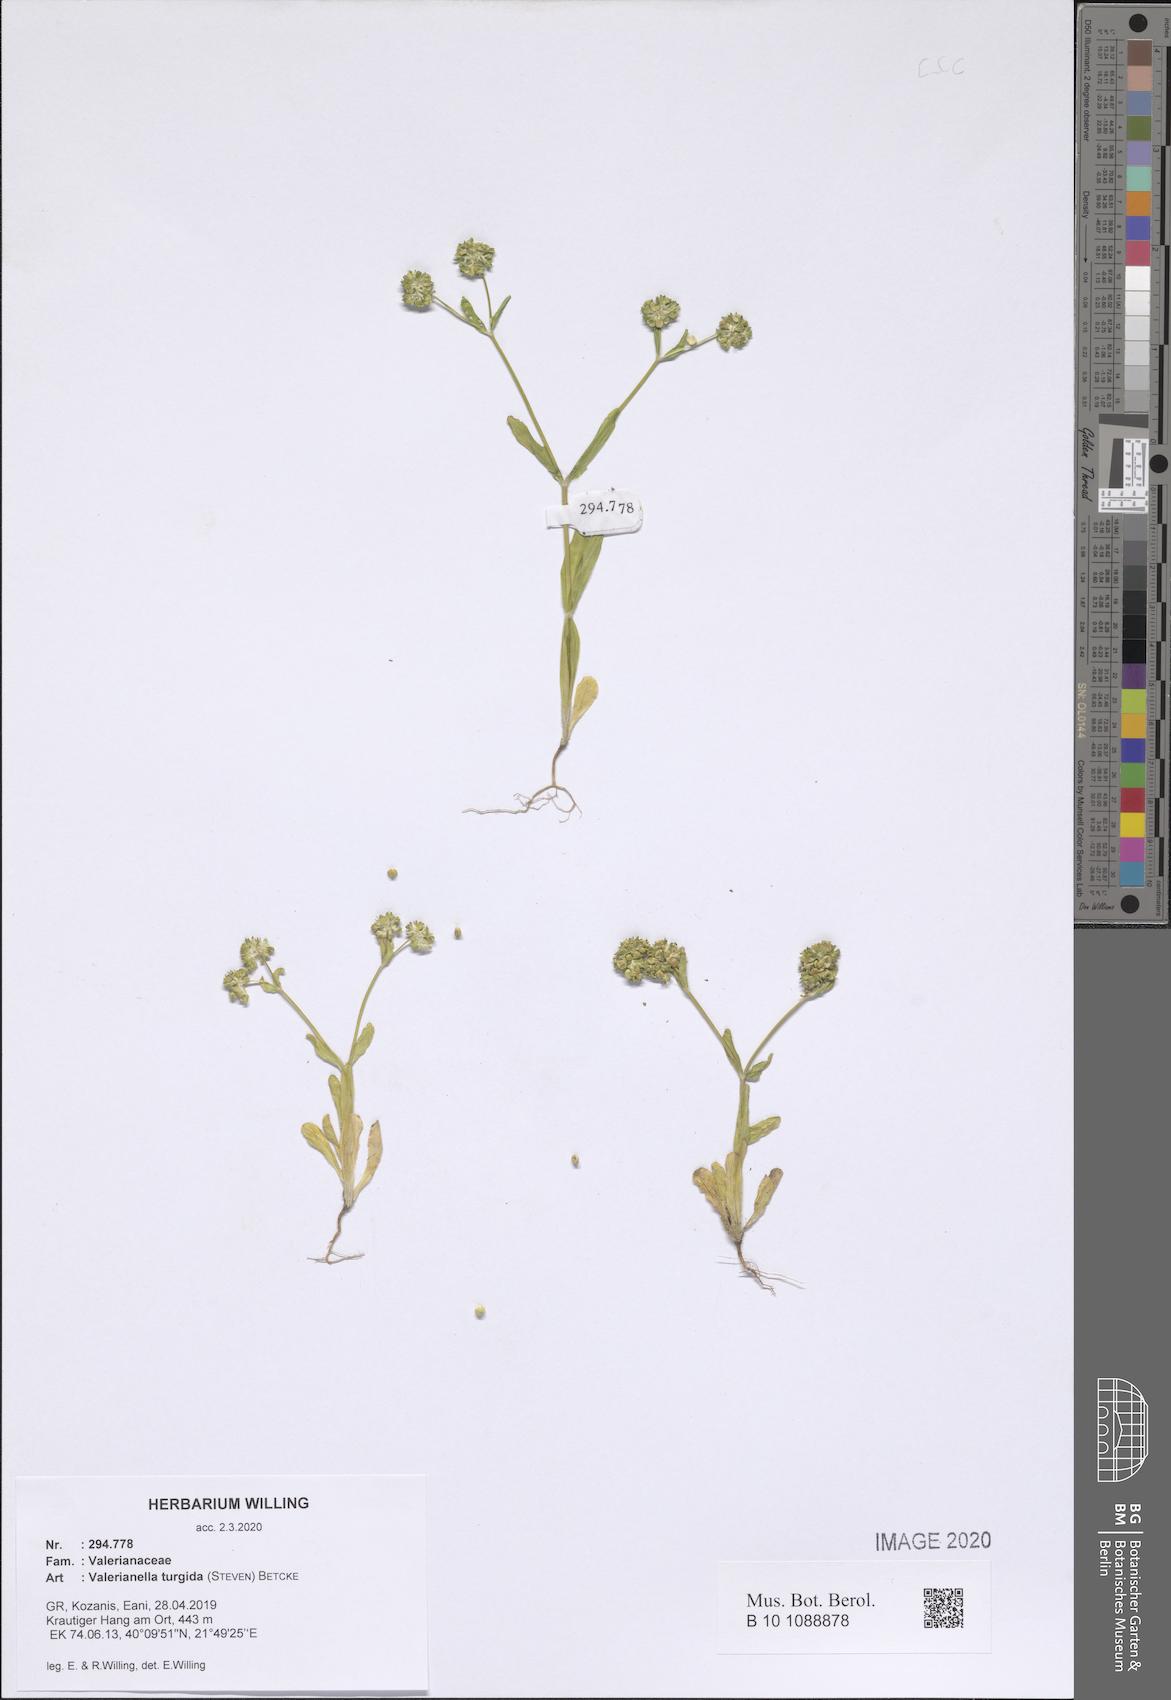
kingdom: Plantae
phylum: Tracheophyta
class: Magnoliopsida
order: Dipsacales
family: Caprifoliaceae
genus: Valerianella
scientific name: Valerianella turgida
